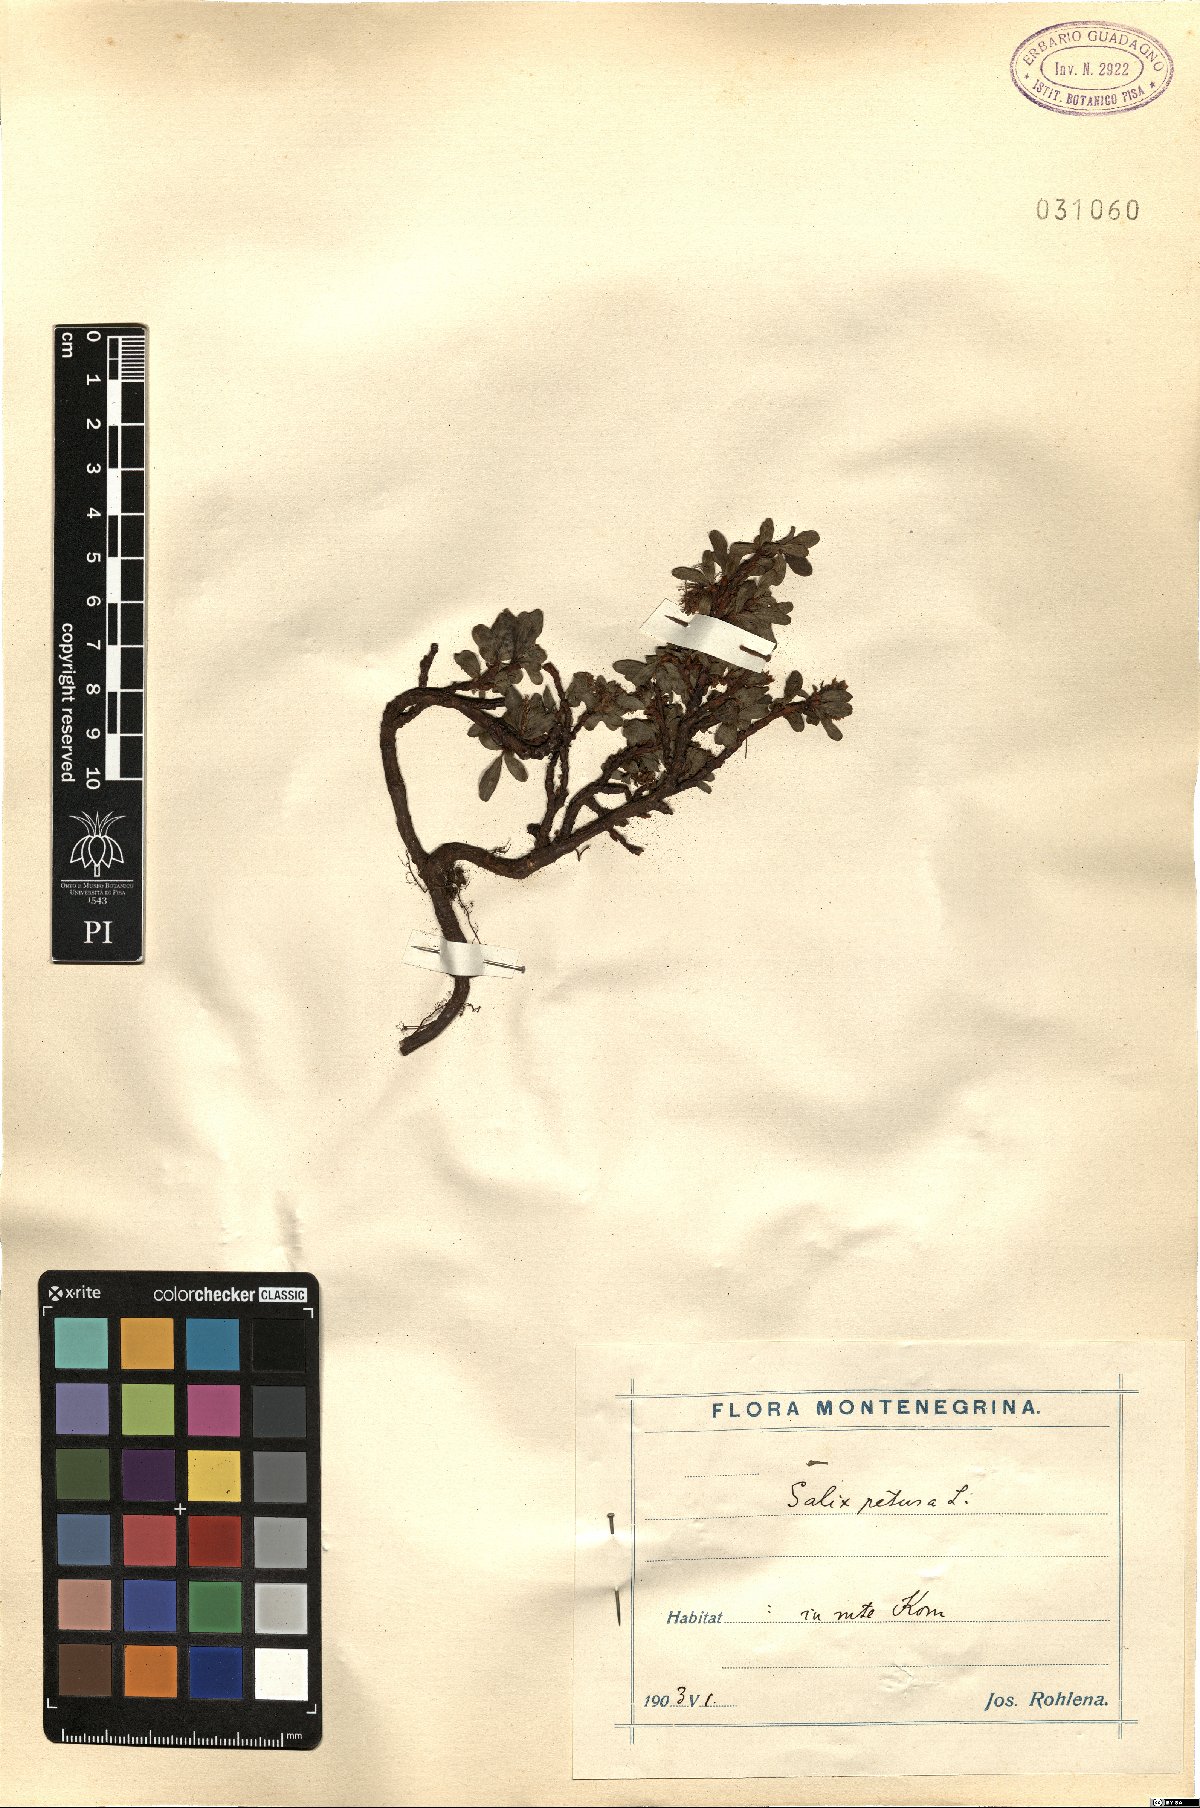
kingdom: Plantae
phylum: Tracheophyta
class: Magnoliopsida
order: Malpighiales
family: Salicaceae
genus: Salix
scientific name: Salix retusa
